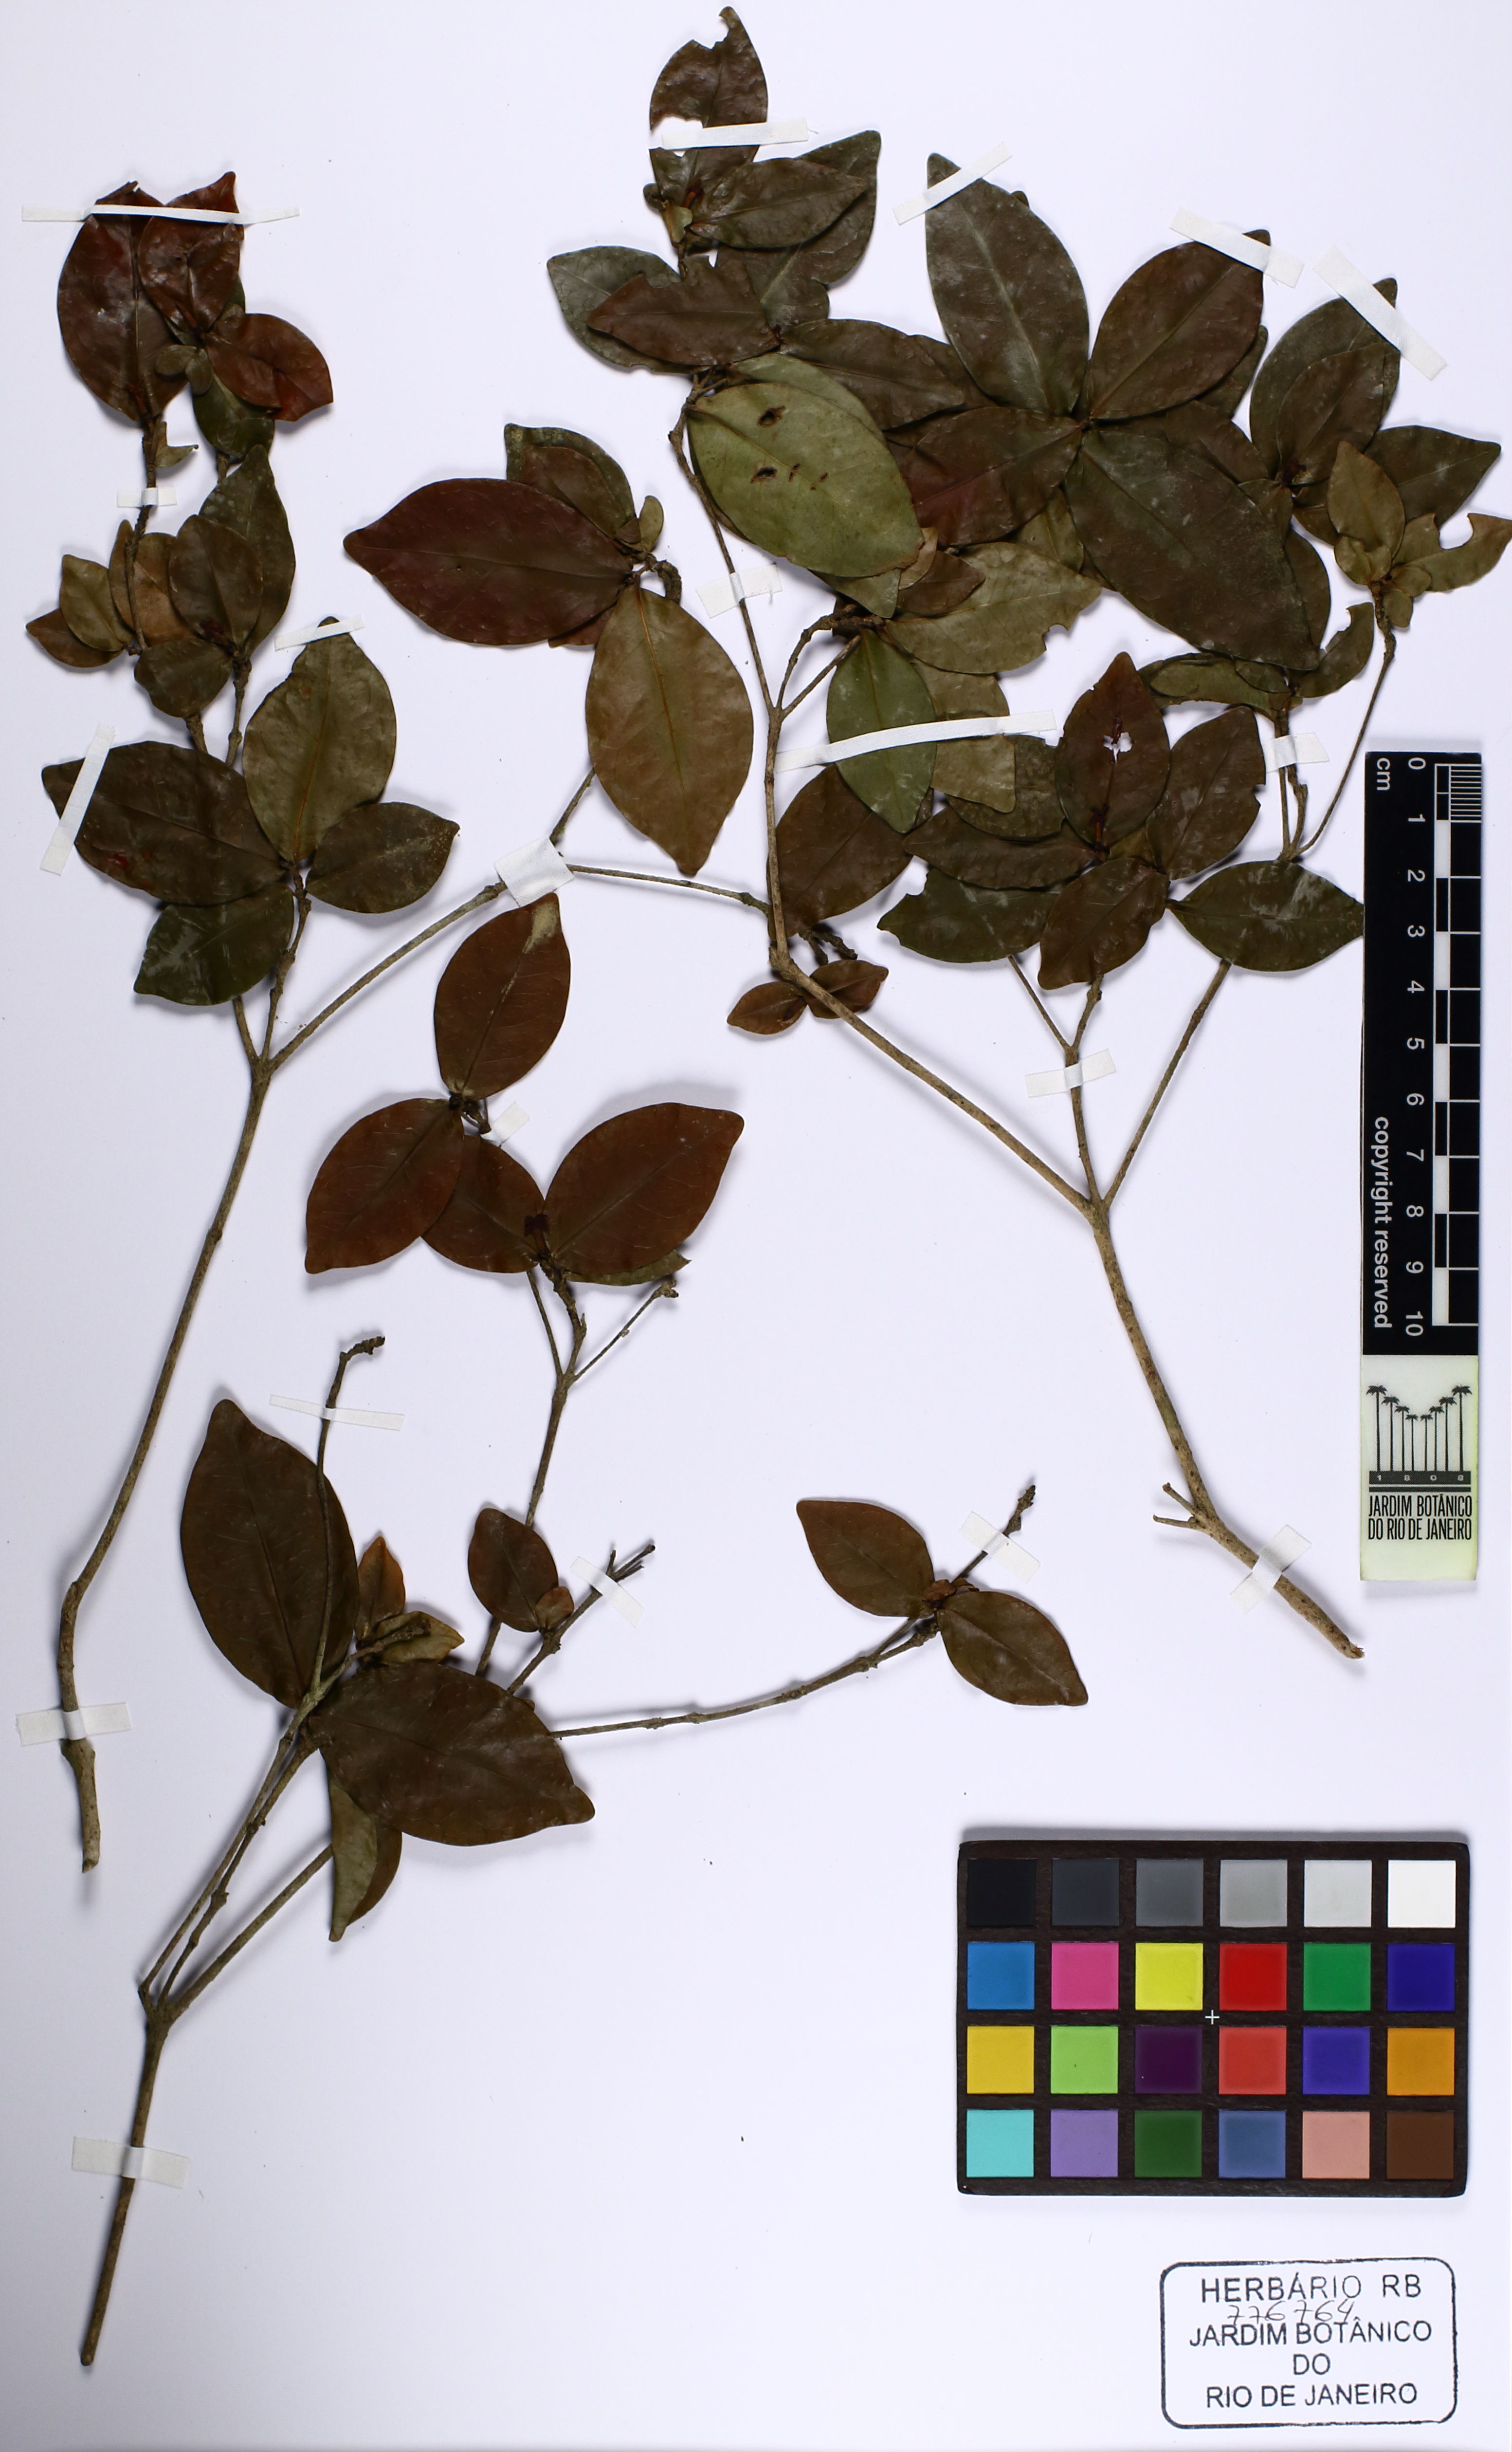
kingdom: Plantae
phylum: Tracheophyta
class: Magnoliopsida
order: Gentianales
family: Rubiaceae
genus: Cordiera
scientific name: Cordiera myrciifolia
